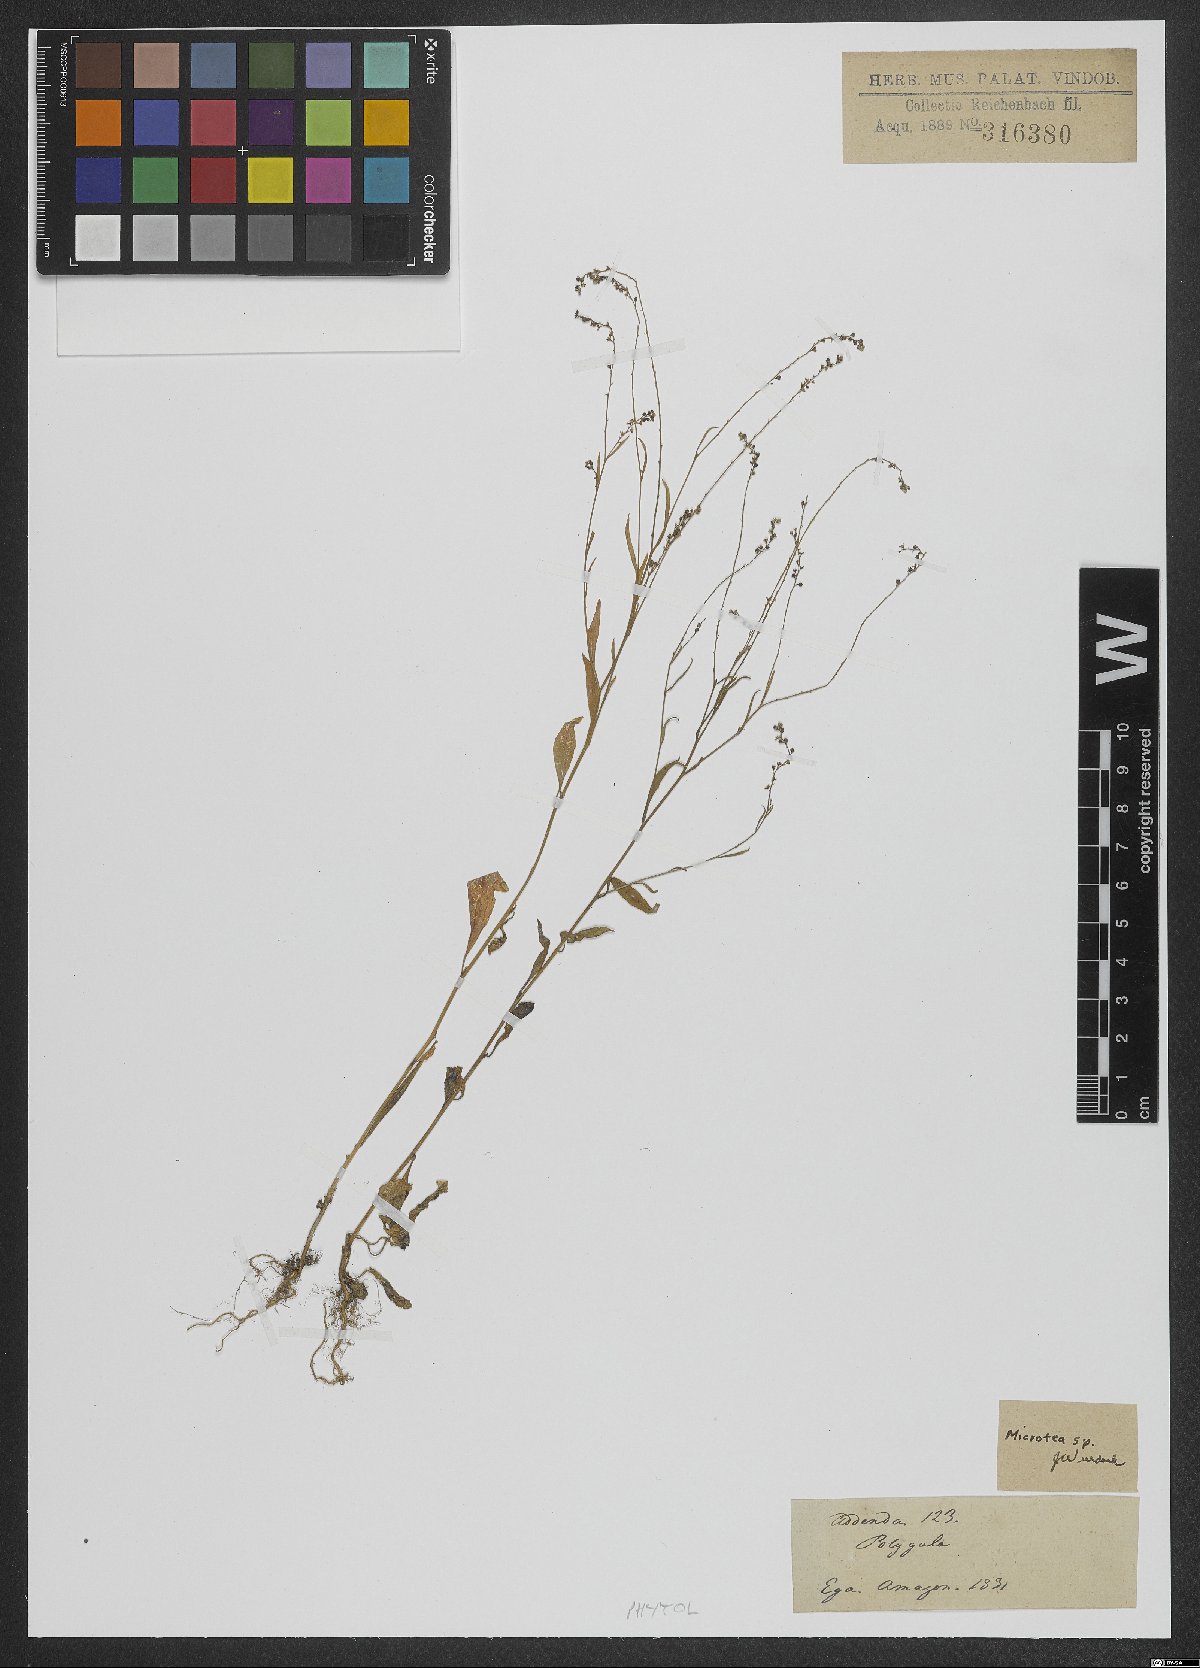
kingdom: Plantae
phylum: Tracheophyta
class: Magnoliopsida
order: Caryophyllales
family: Microteaceae
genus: Microtea
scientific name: Microtea maypurensis
